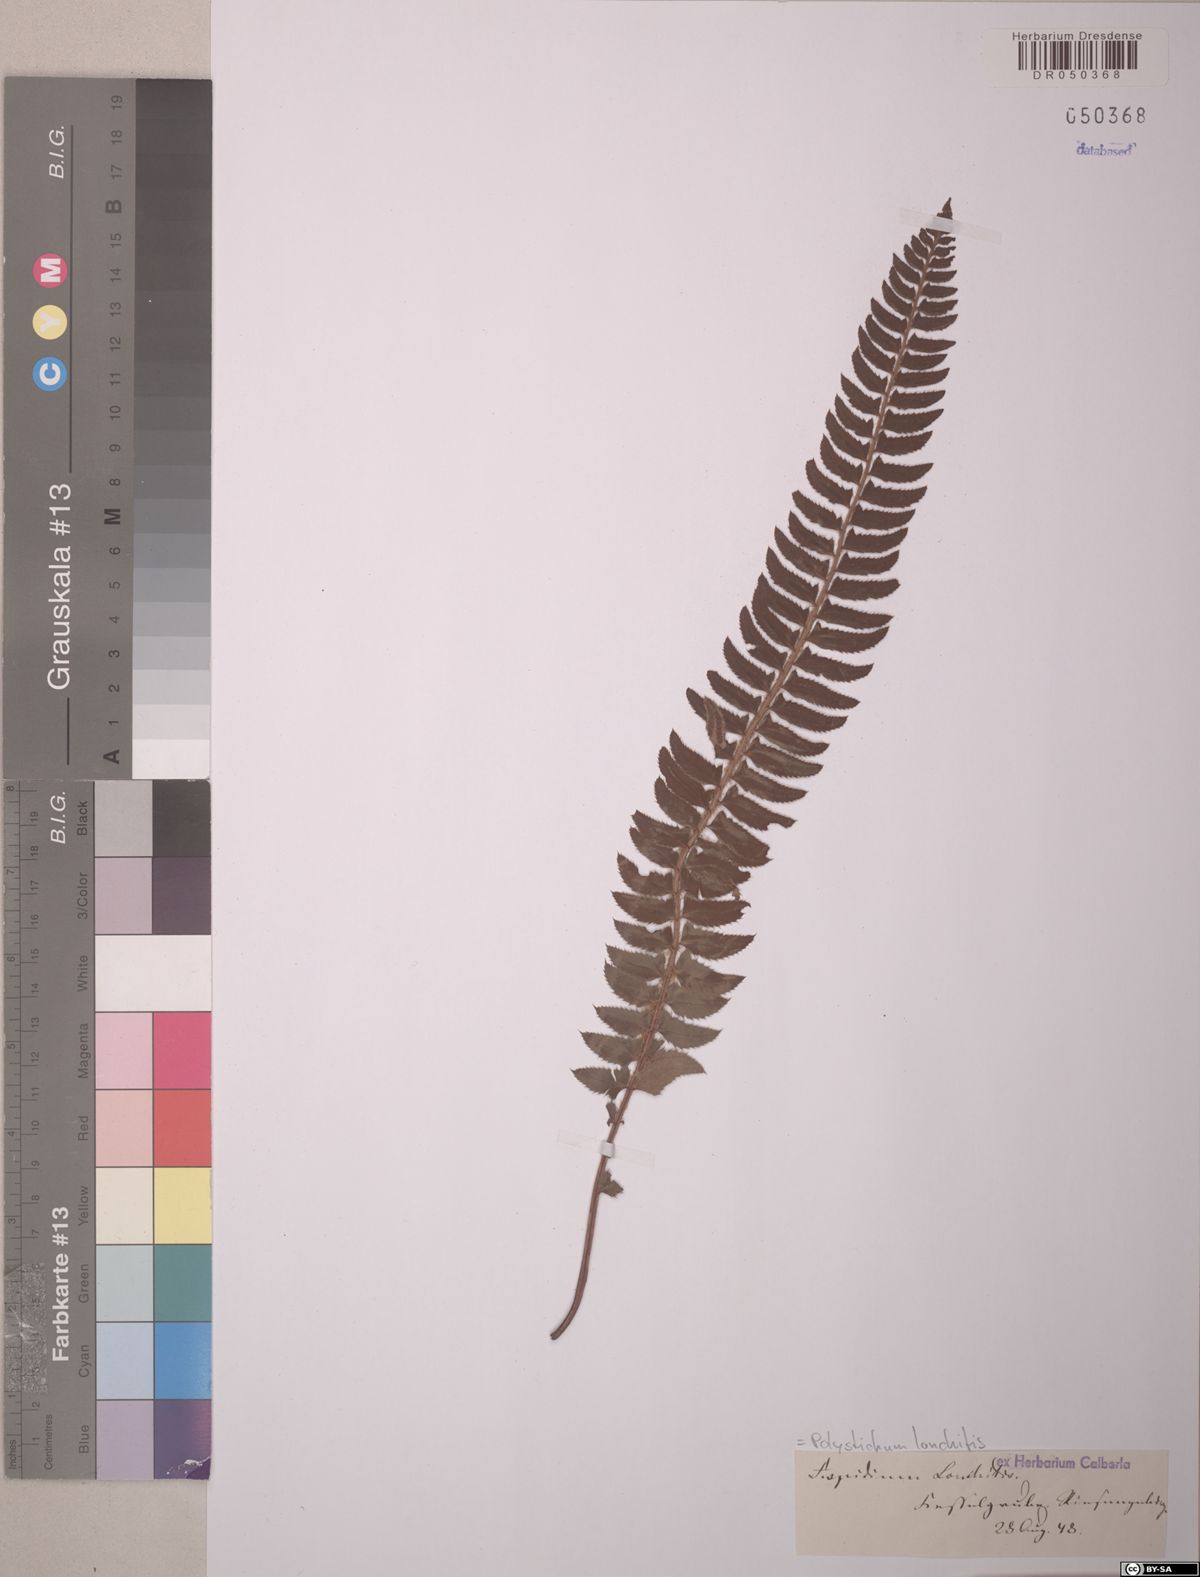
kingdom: Plantae
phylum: Tracheophyta
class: Polypodiopsida
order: Polypodiales
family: Dryopteridaceae
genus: Polystichum
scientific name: Polystichum lonchitis
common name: Holly fern
